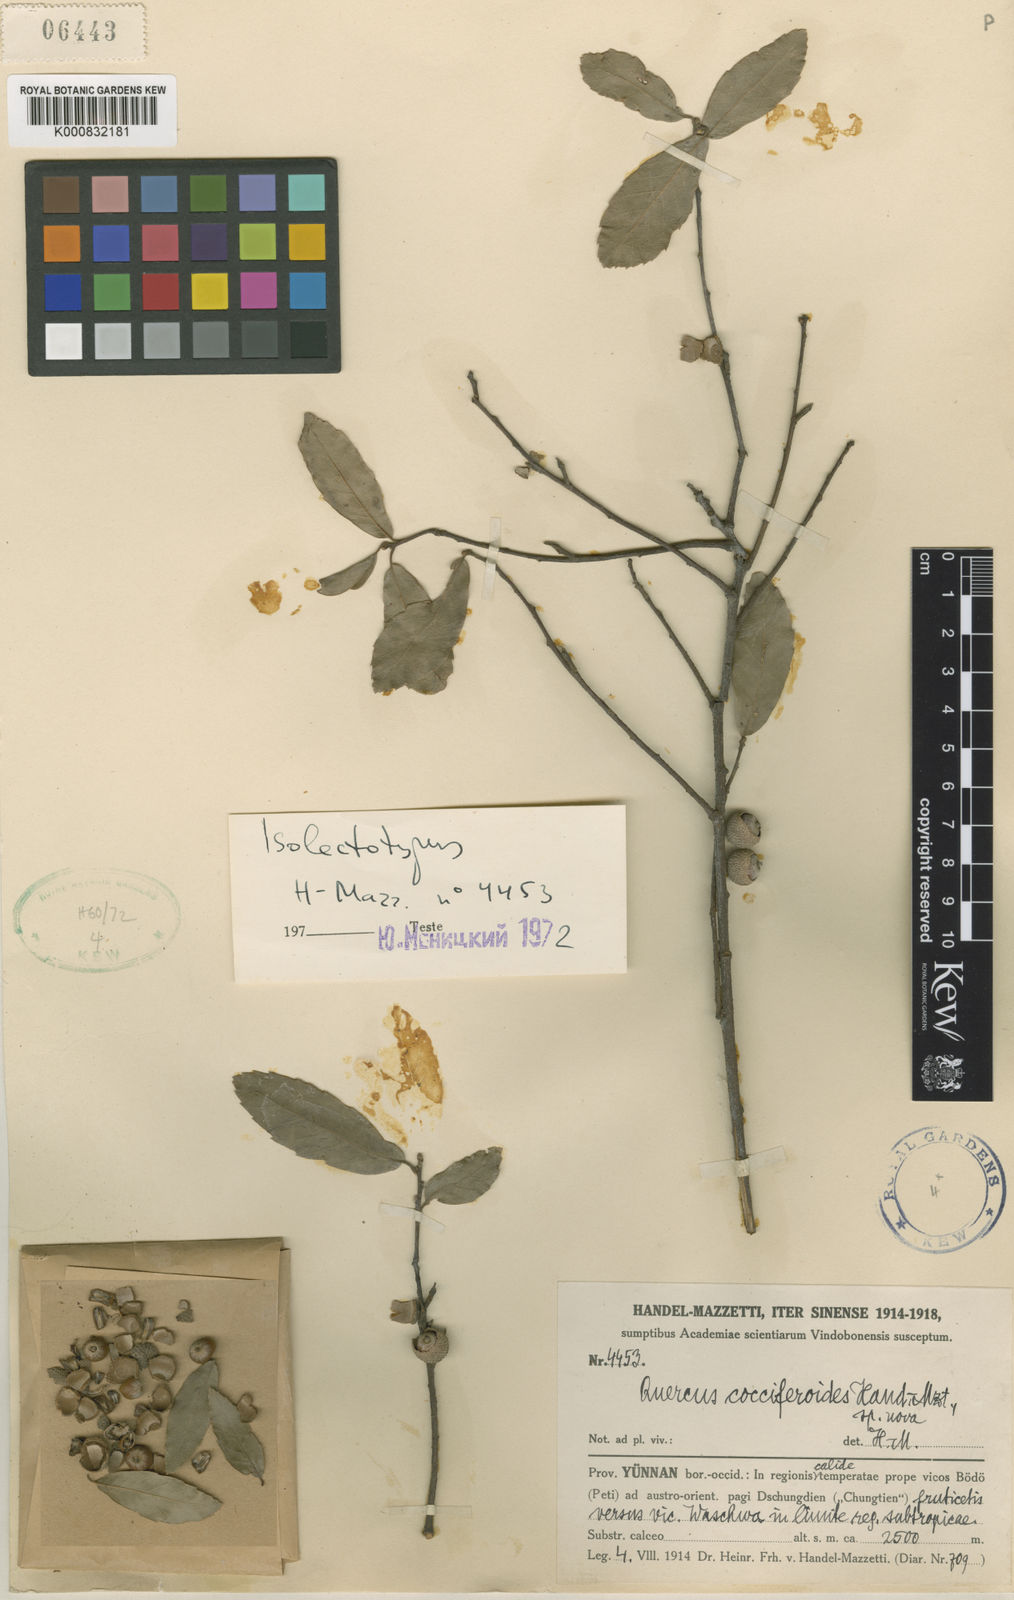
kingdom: Plantae
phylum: Tracheophyta
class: Magnoliopsida
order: Fagales
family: Fagaceae
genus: Quercus
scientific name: Quercus cocciferoides
